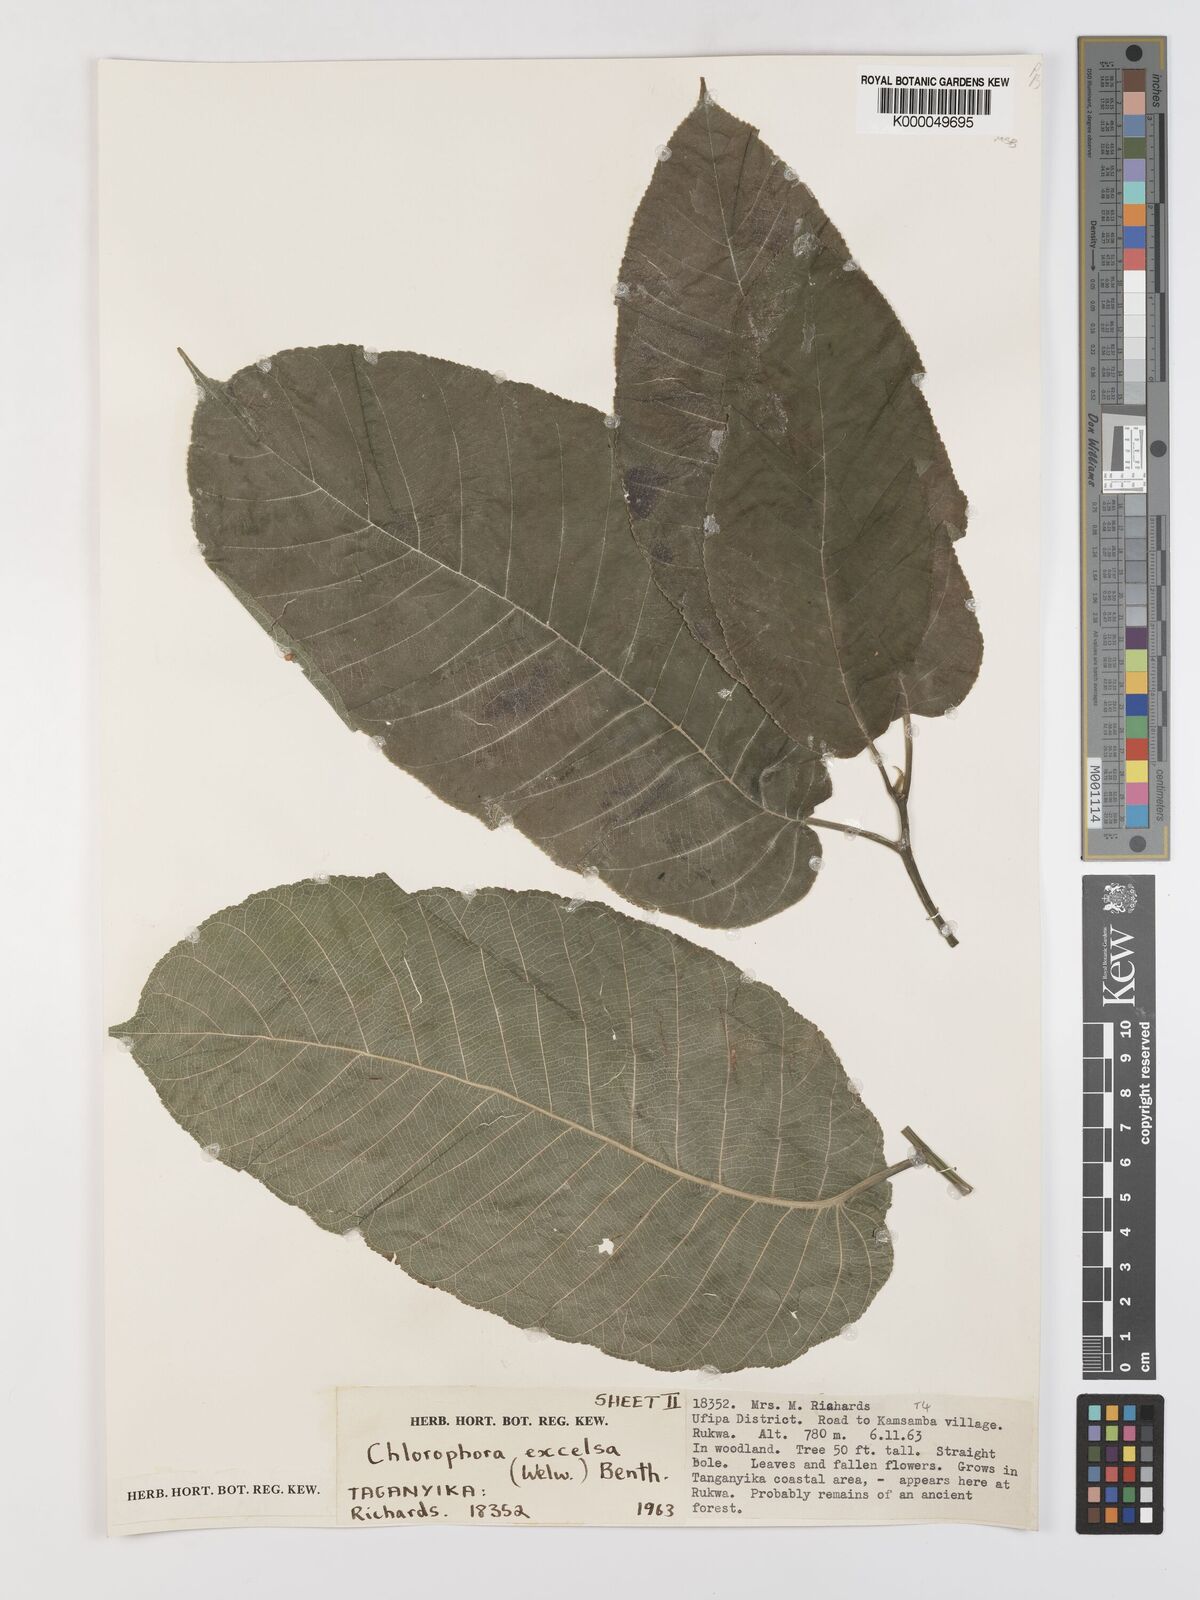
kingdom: Plantae
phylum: Tracheophyta
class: Magnoliopsida
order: Rosales
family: Moraceae
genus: Milicia
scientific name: Milicia excelsa
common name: African teak
